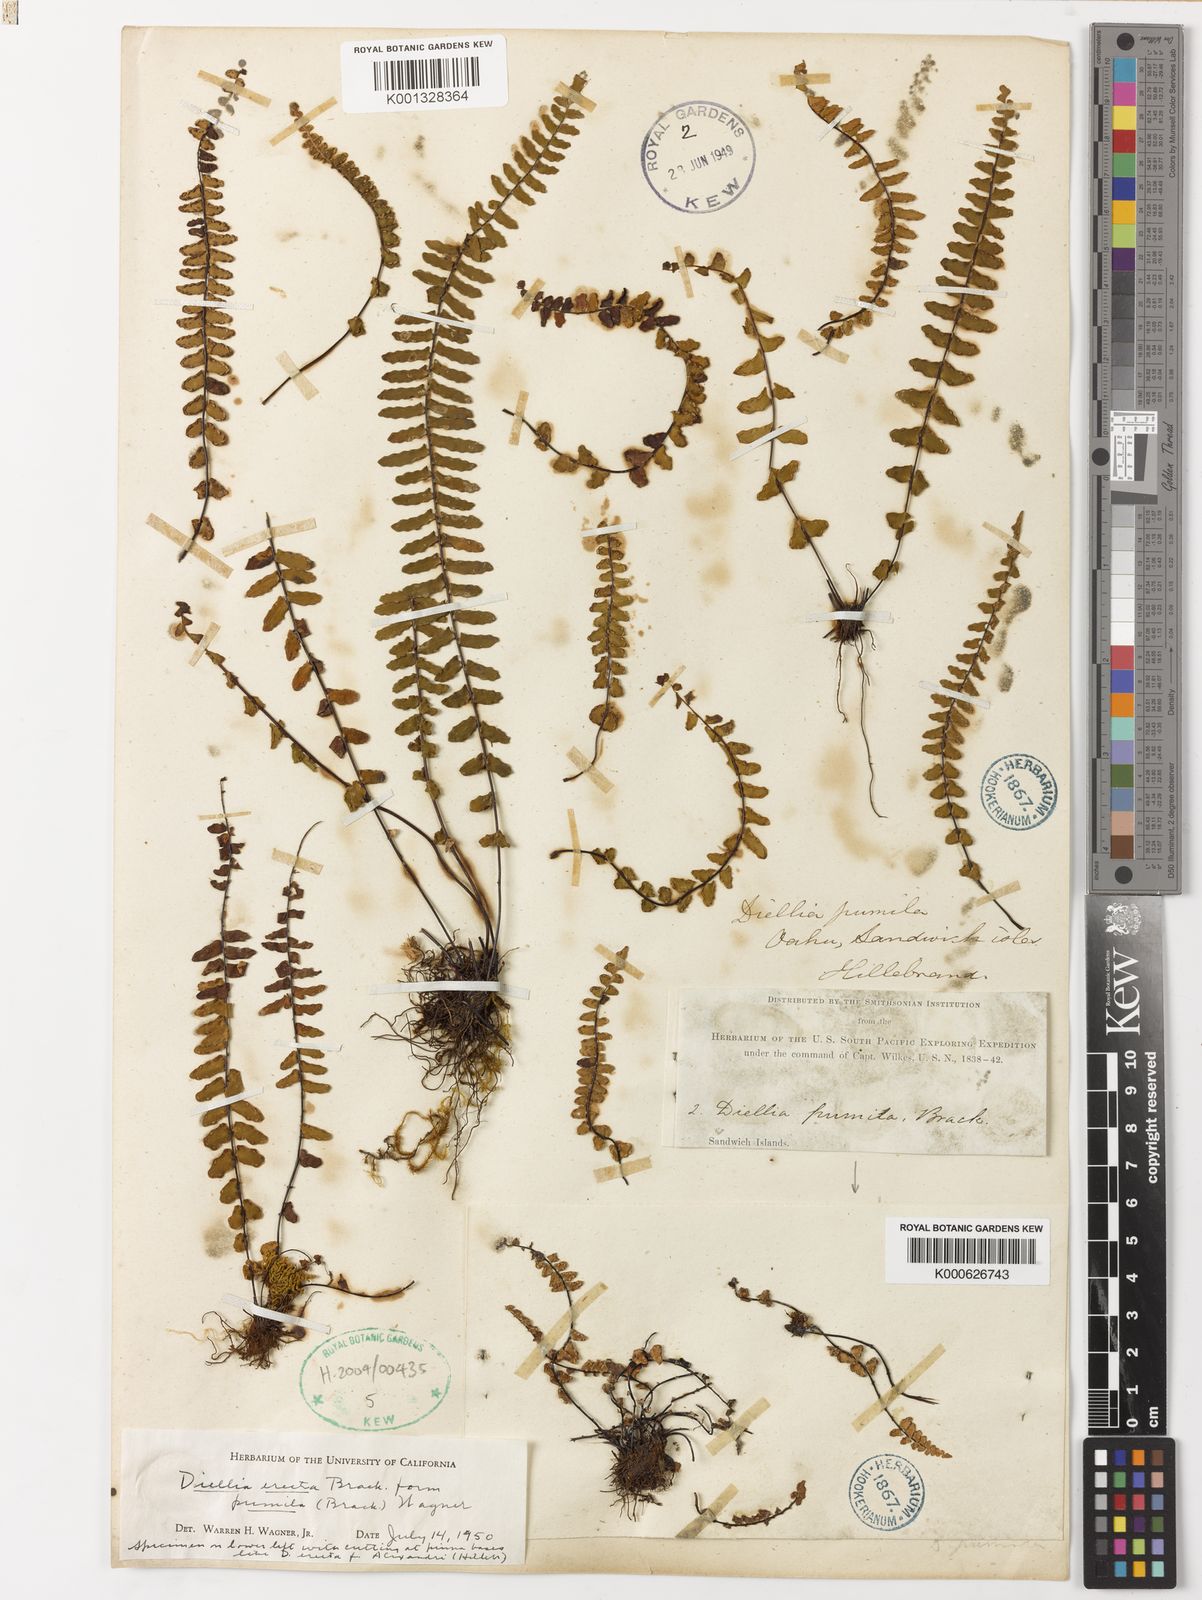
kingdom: Plantae
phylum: Tracheophyta
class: Polypodiopsida
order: Polypodiales
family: Aspleniaceae
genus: Asplenium
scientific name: Asplenium dielerectum
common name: Erect island spleenwort
